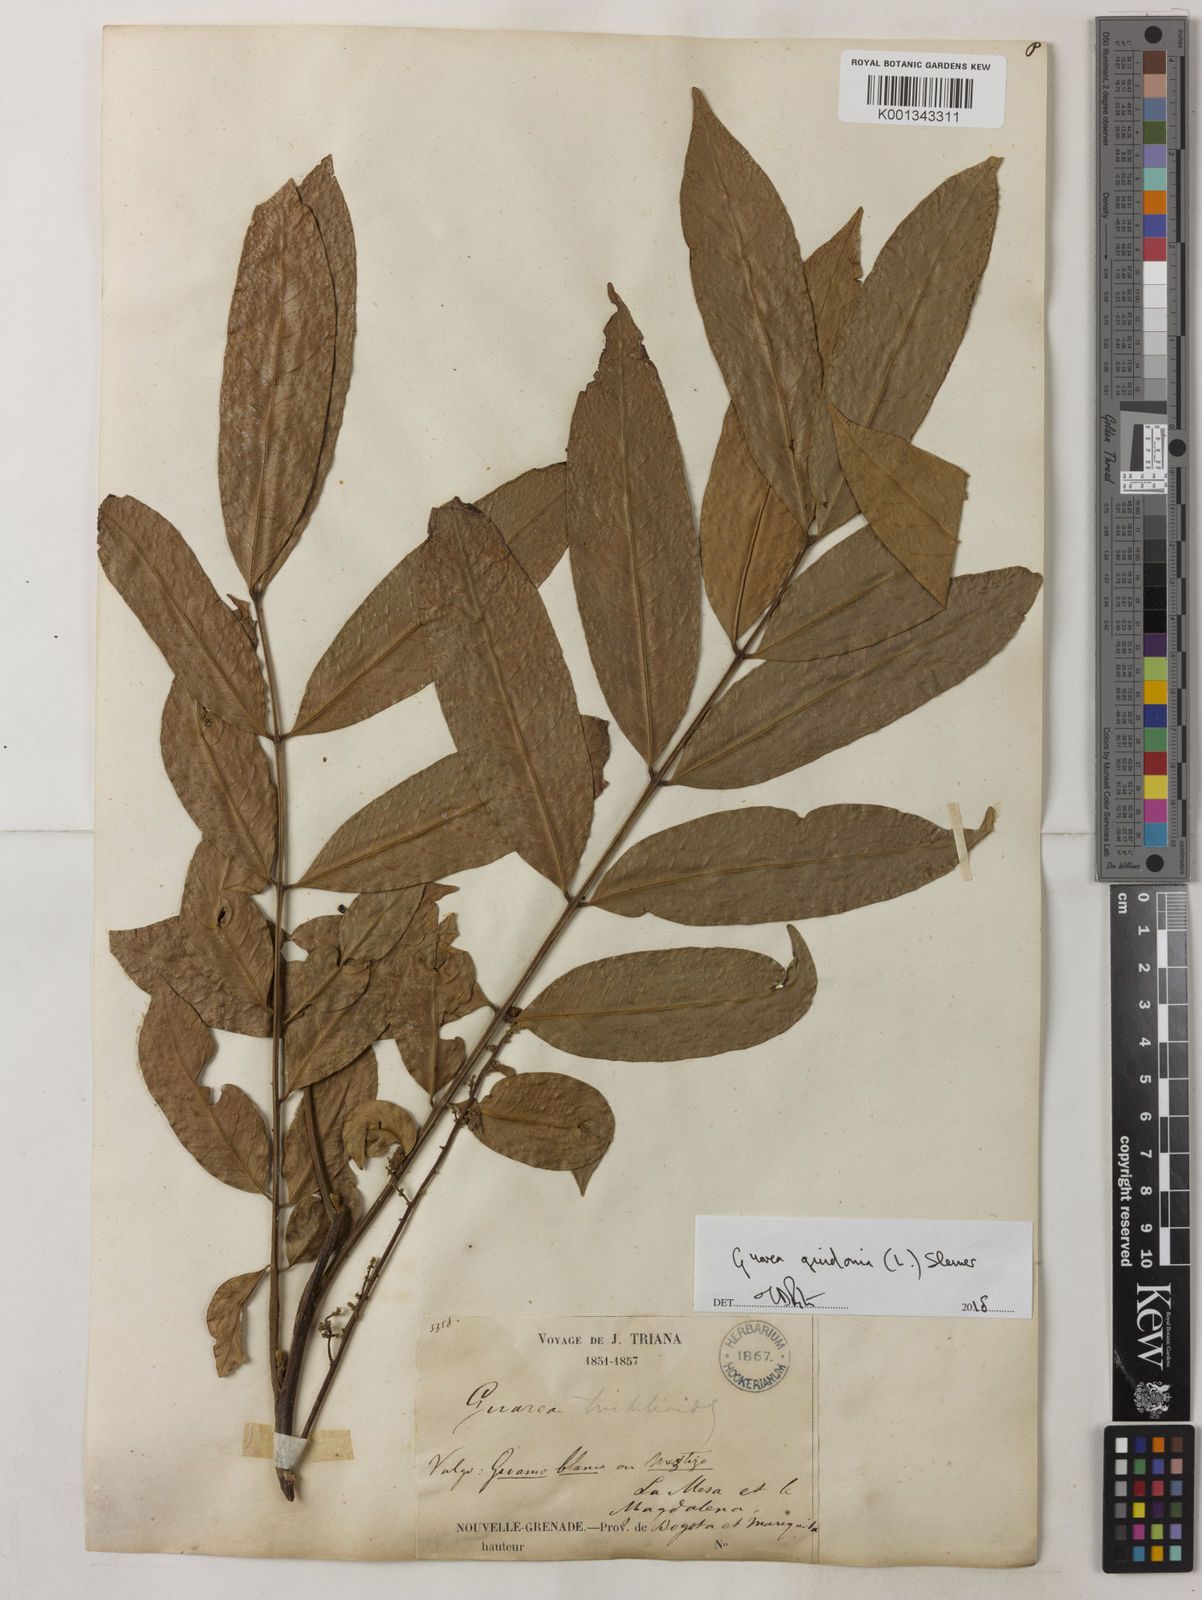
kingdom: Plantae
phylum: Tracheophyta
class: Magnoliopsida
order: Sapindales
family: Meliaceae
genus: Guarea
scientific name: Guarea guidonia
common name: American muskwood
